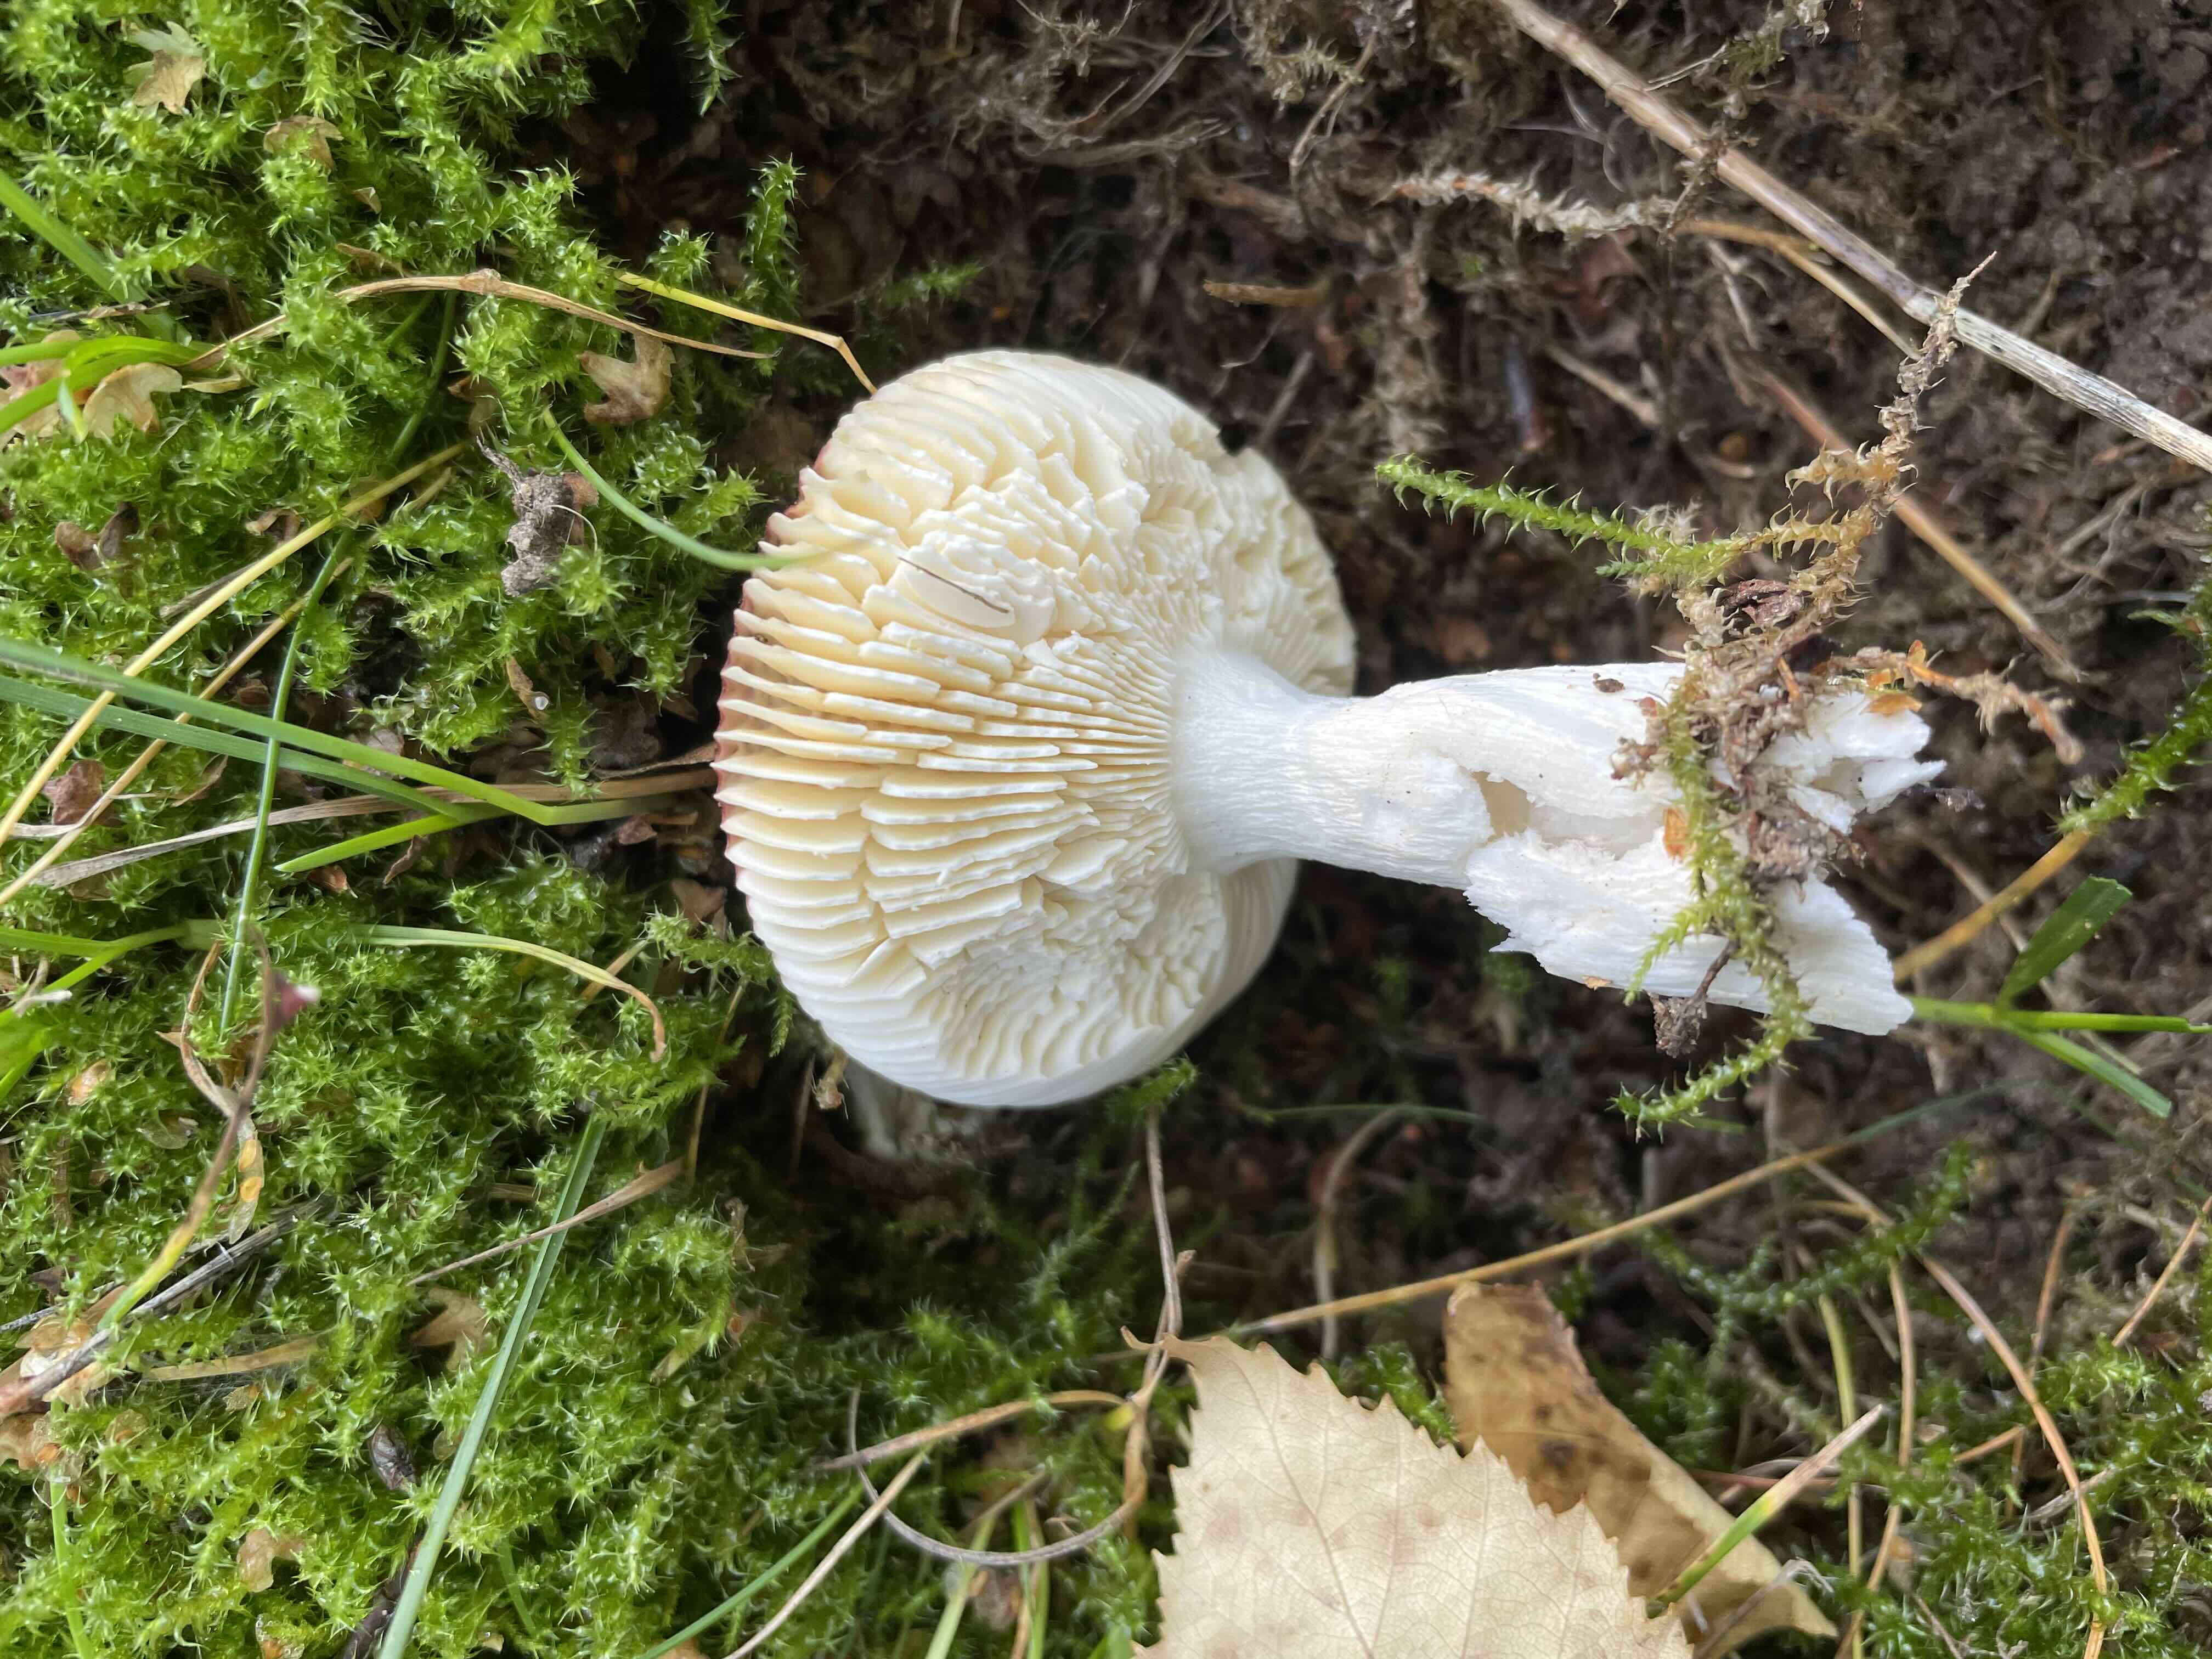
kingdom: Fungi
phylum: Basidiomycota
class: Agaricomycetes
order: Russulales
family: Russulaceae
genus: Russula
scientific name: Russula
